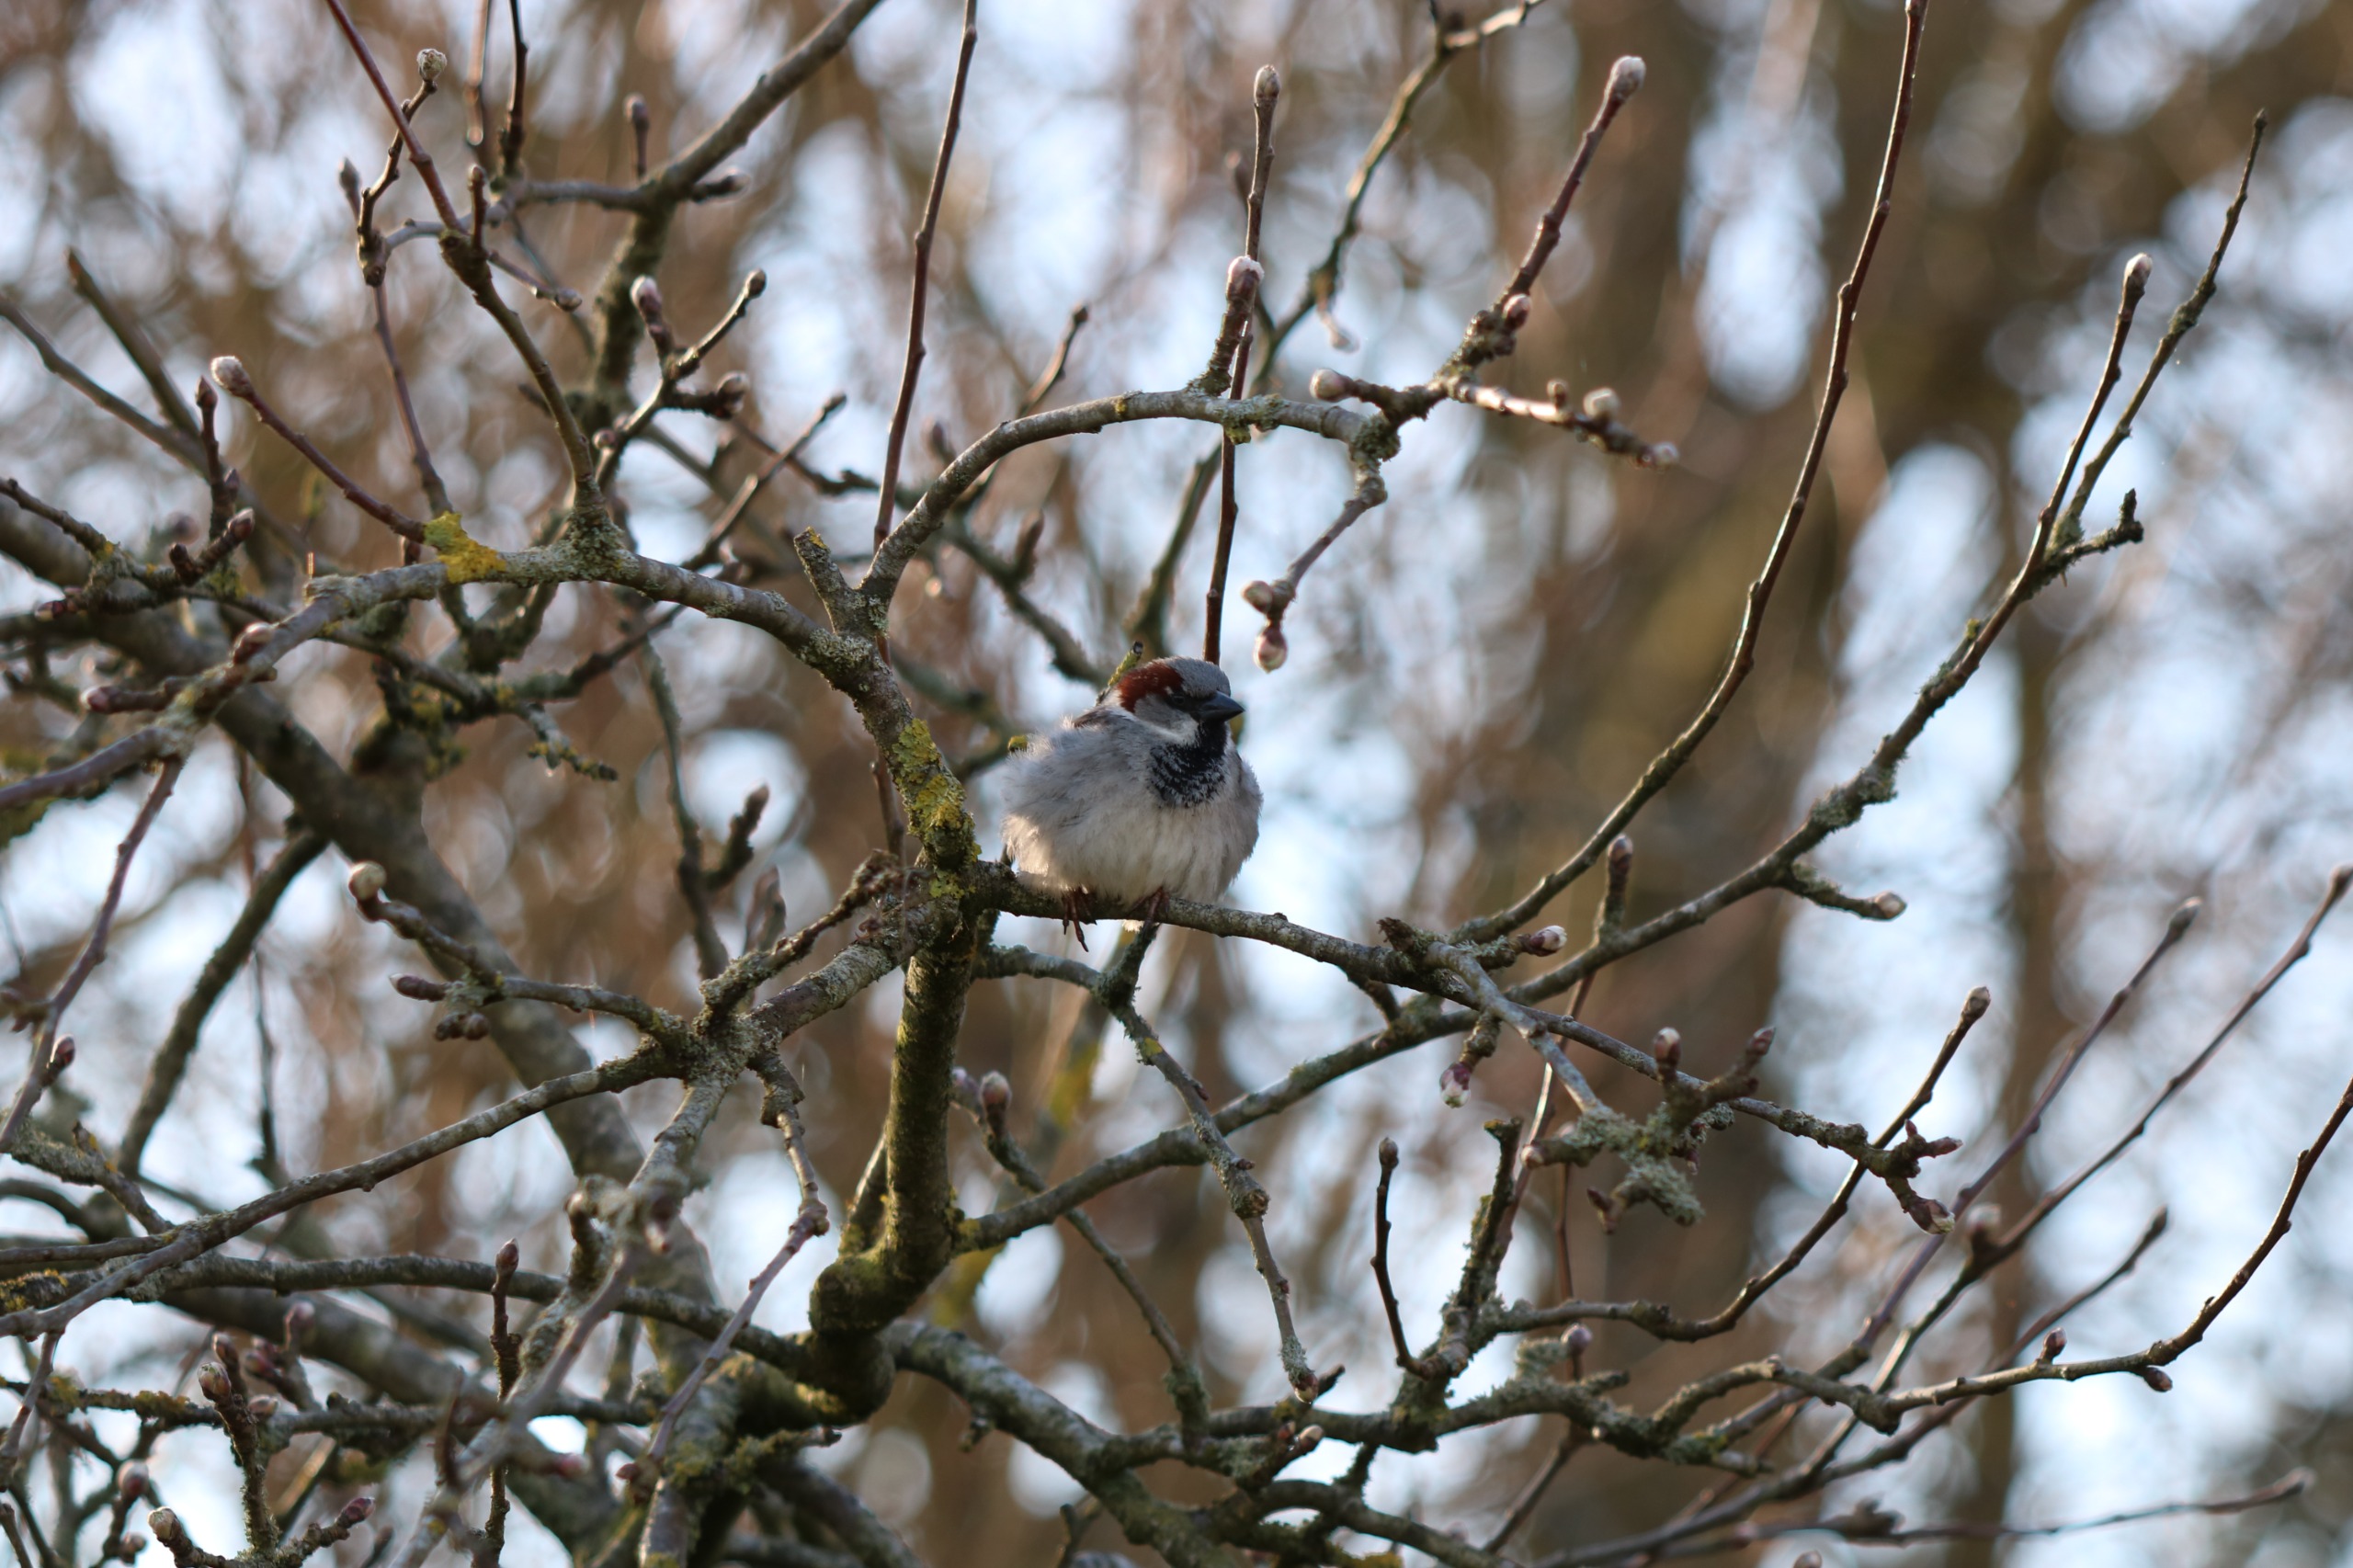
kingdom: Animalia
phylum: Chordata
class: Aves
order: Passeriformes
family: Passeridae
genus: Passer
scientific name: Passer domesticus
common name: Gråspurv
